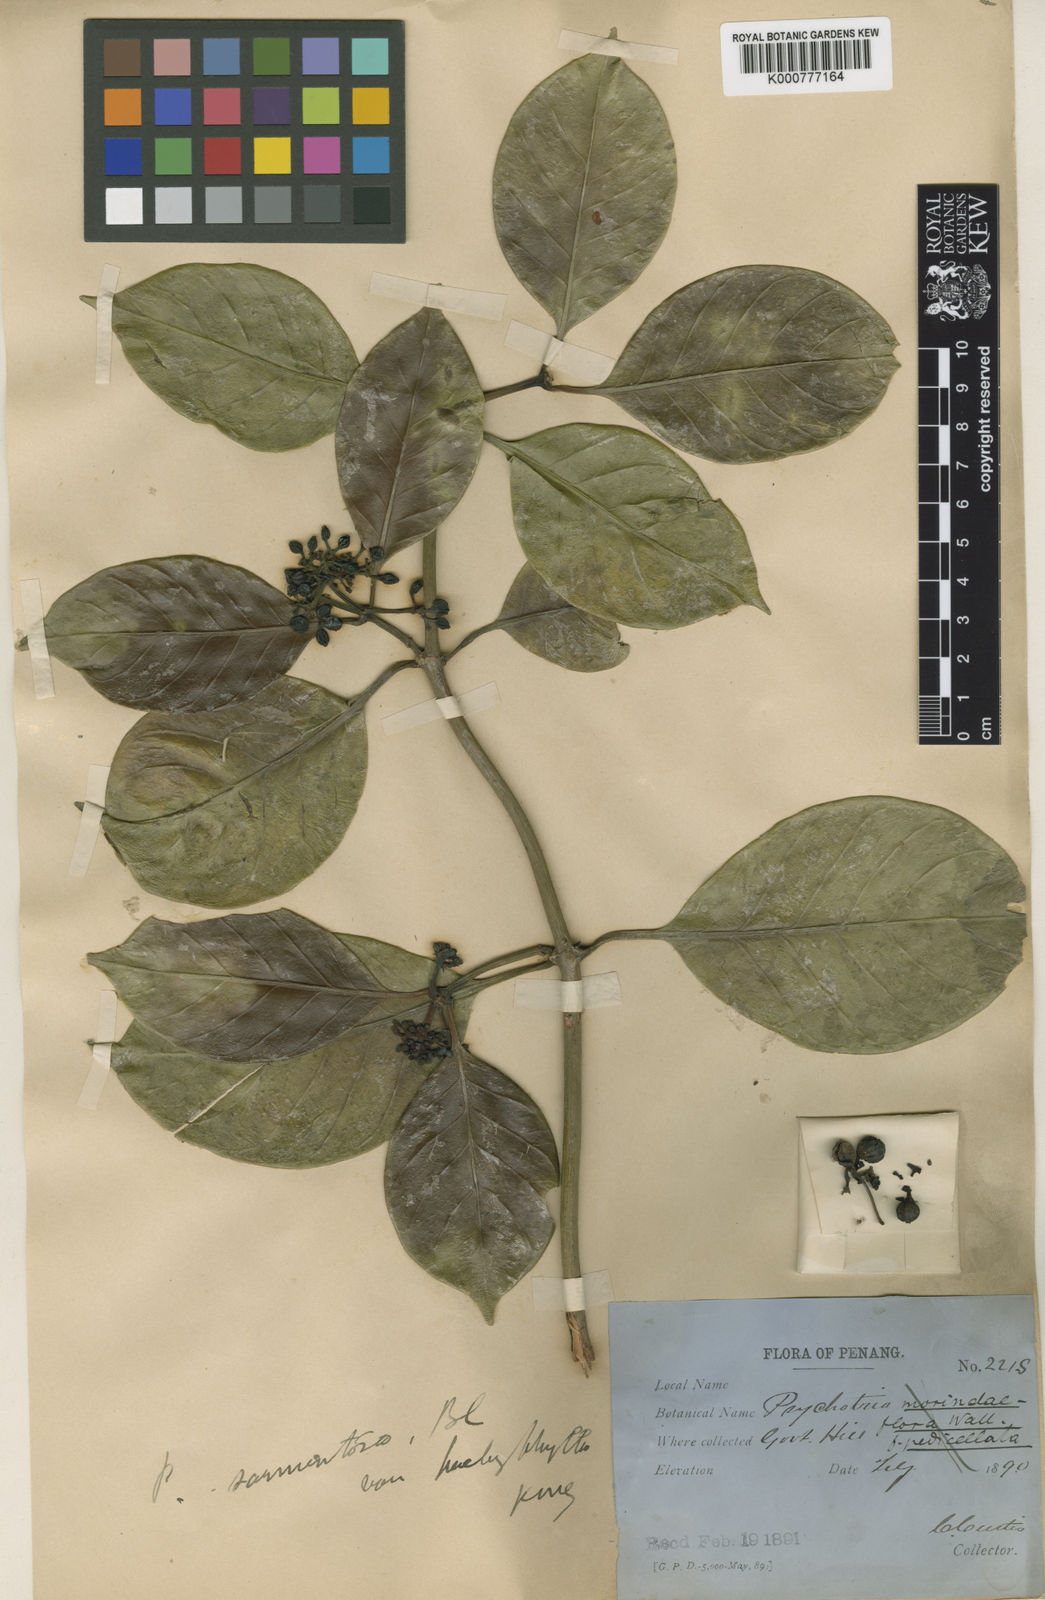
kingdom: Plantae
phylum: Tracheophyta
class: Magnoliopsida
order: Gentianales
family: Rubiaceae
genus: Psychotria
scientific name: Psychotria pachyphylla
